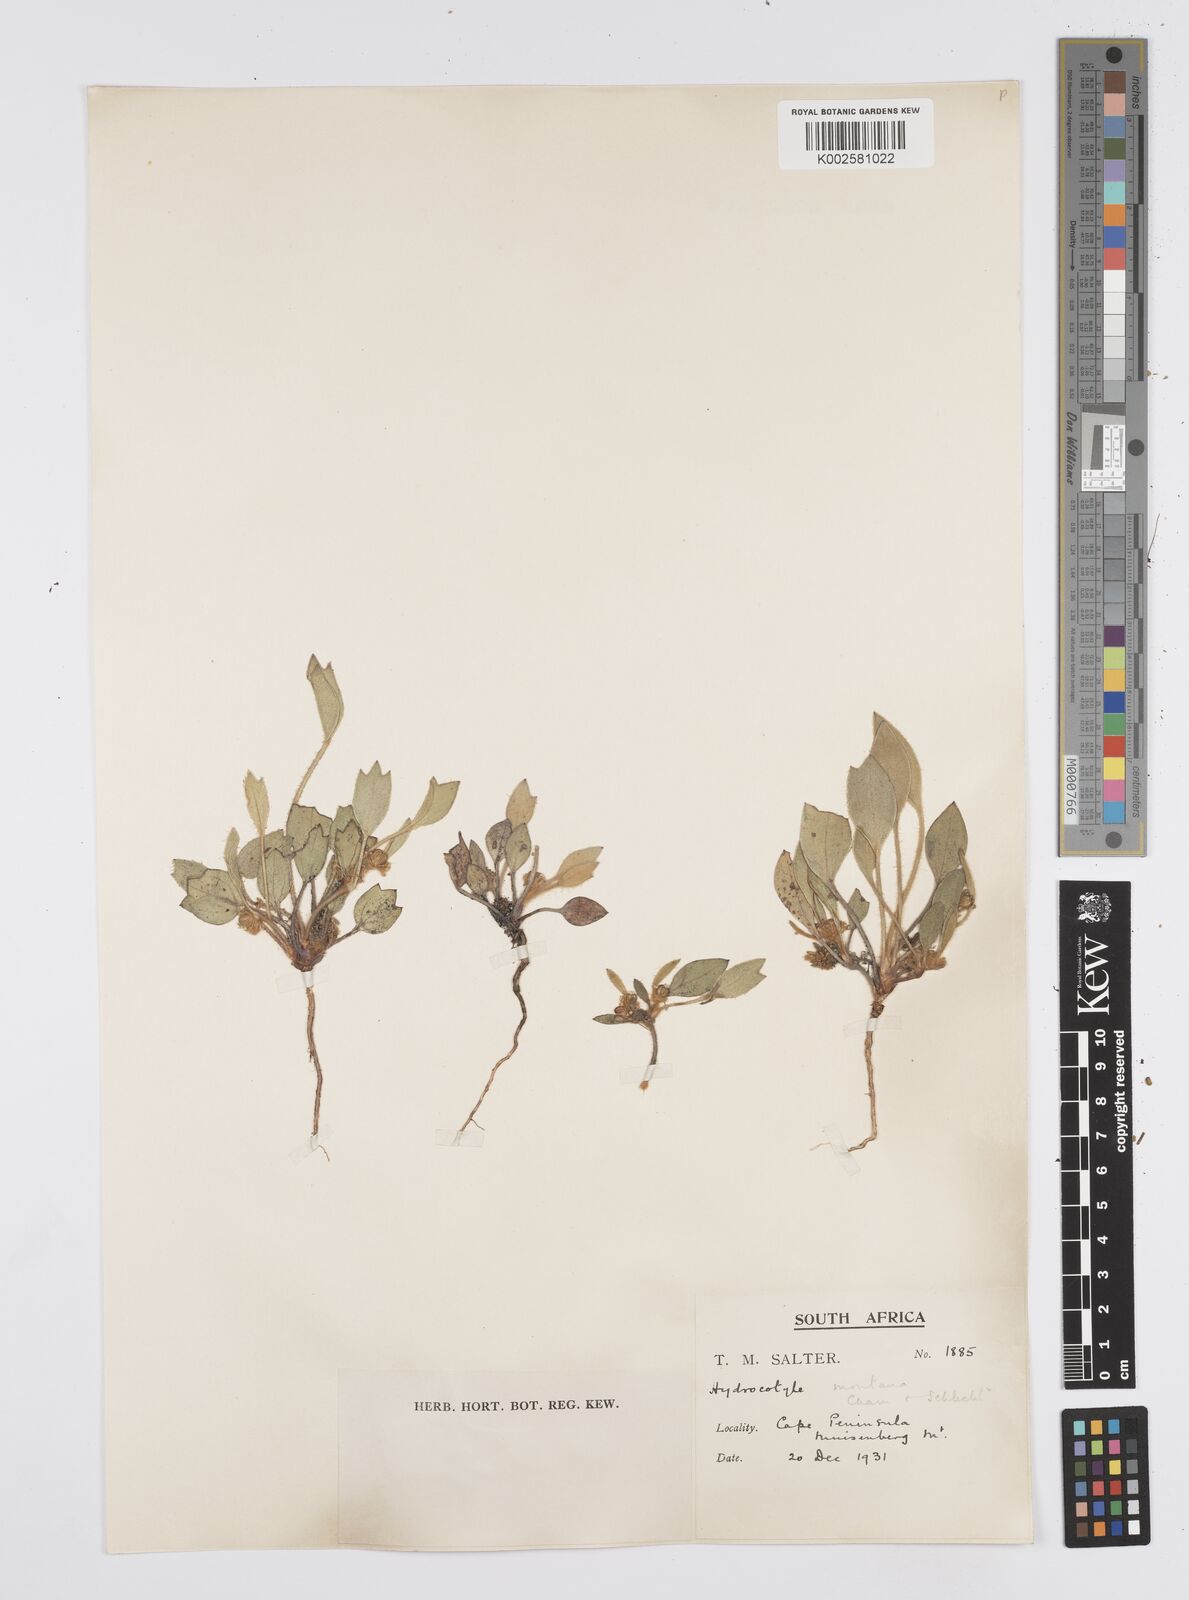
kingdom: Plantae
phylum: Tracheophyta
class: Magnoliopsida
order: Apiales
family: Apiaceae
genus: Centella
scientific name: Centella difformis
